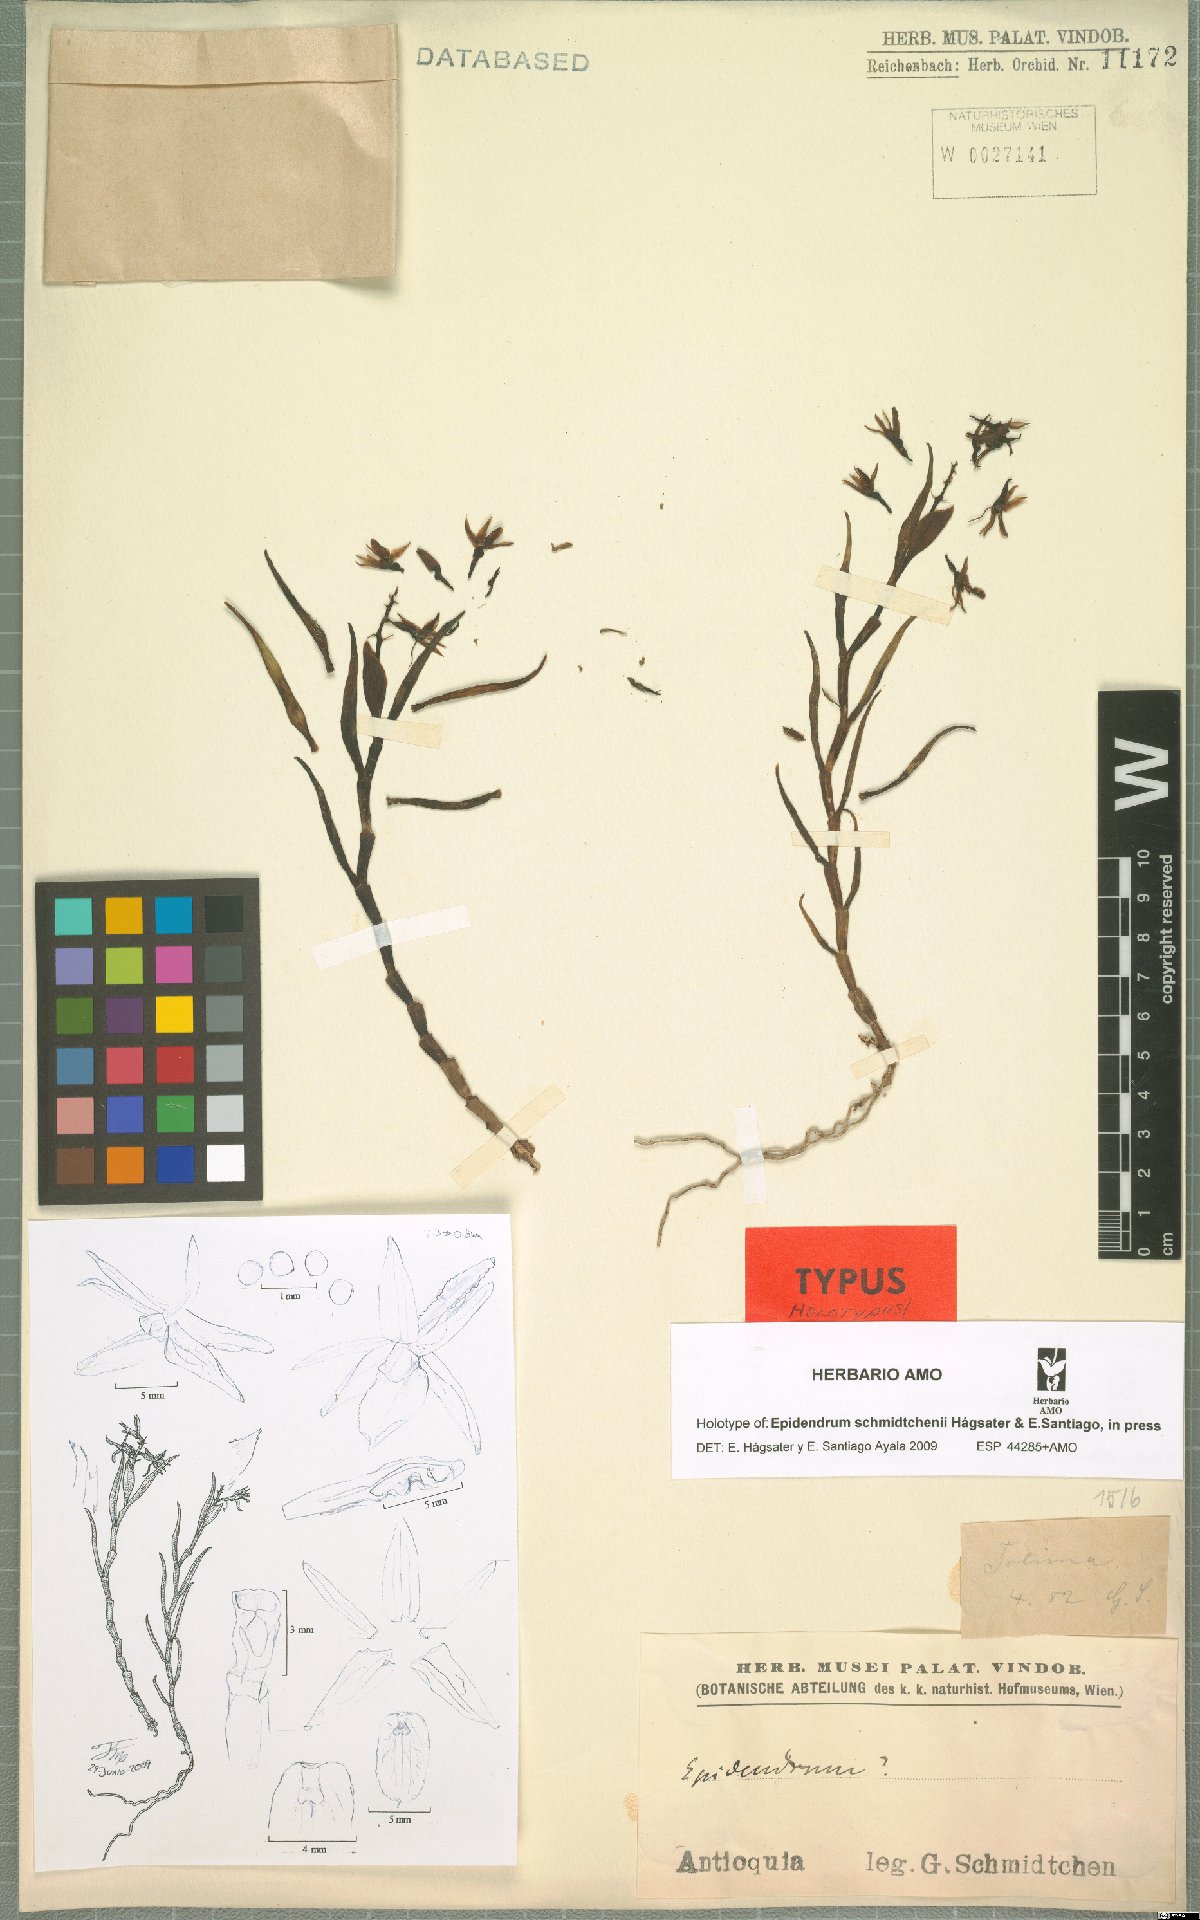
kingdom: Plantae
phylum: Tracheophyta
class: Liliopsida
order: Asparagales
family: Orchidaceae
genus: Epidendrum
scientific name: Epidendrum schmidtchenii
